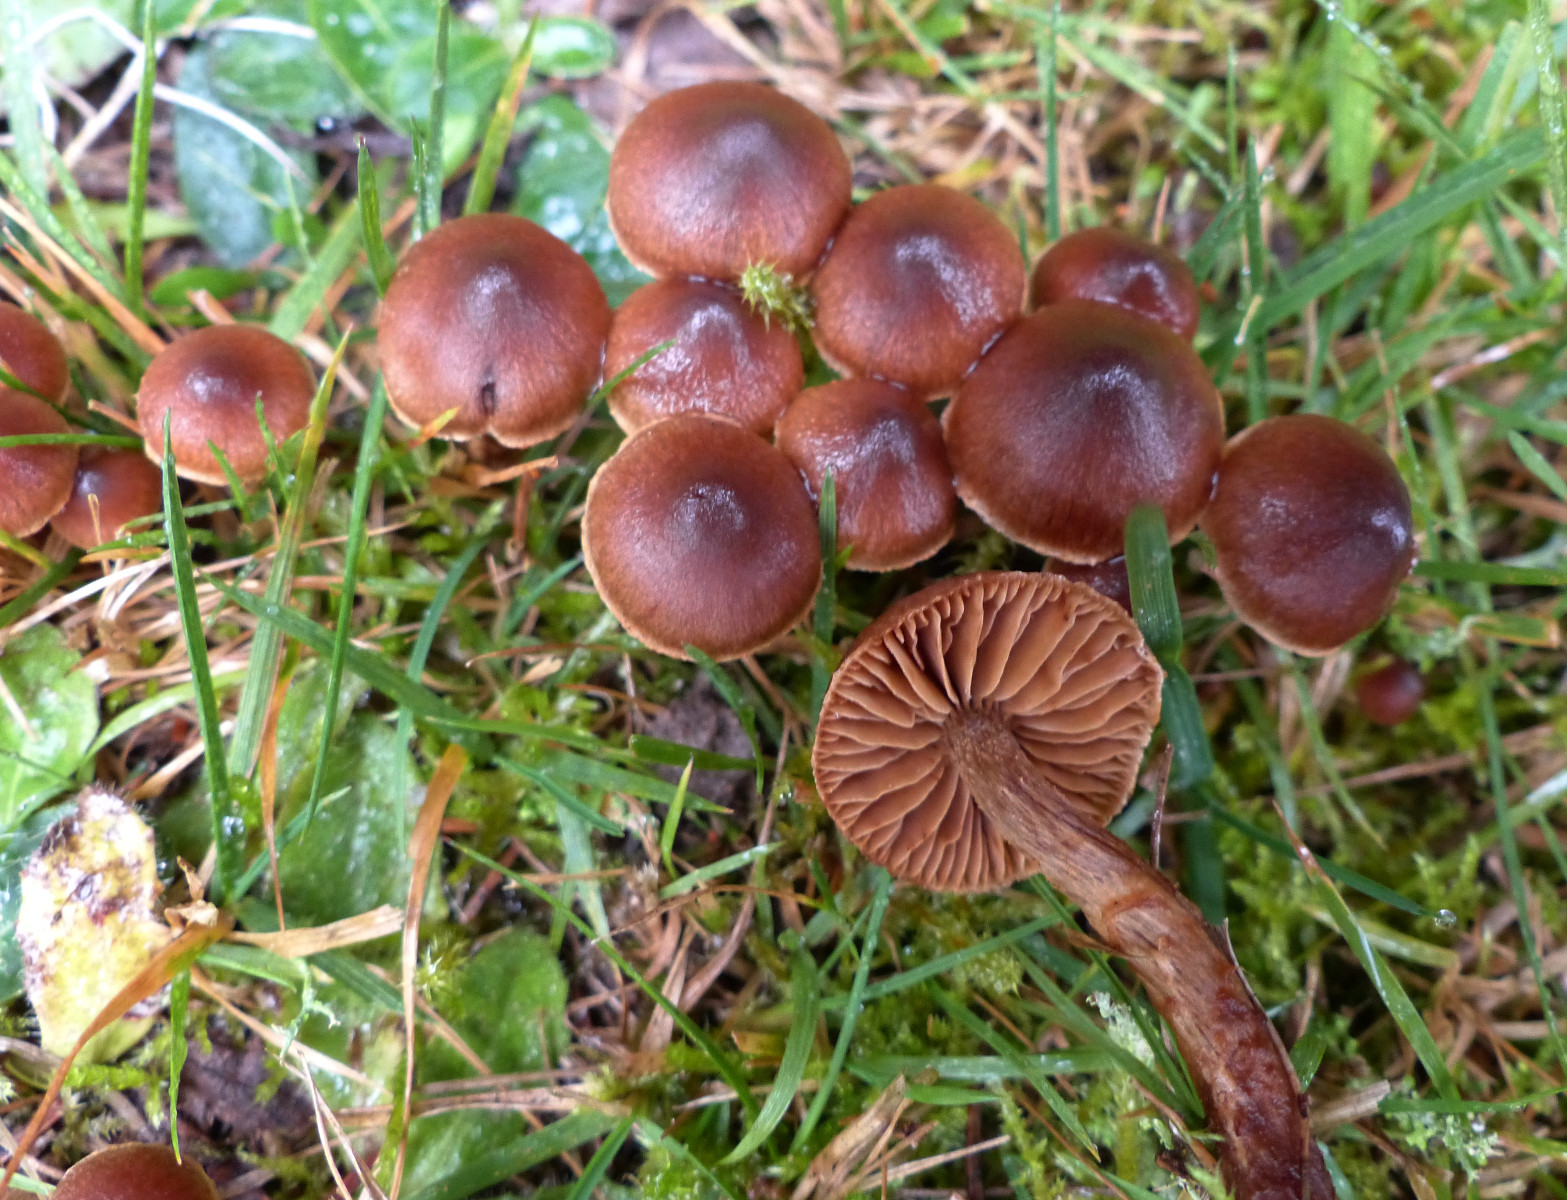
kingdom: Fungi
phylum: Basidiomycota
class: Agaricomycetes
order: Agaricales
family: Cortinariaceae
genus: Cortinarius
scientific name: Cortinarius
